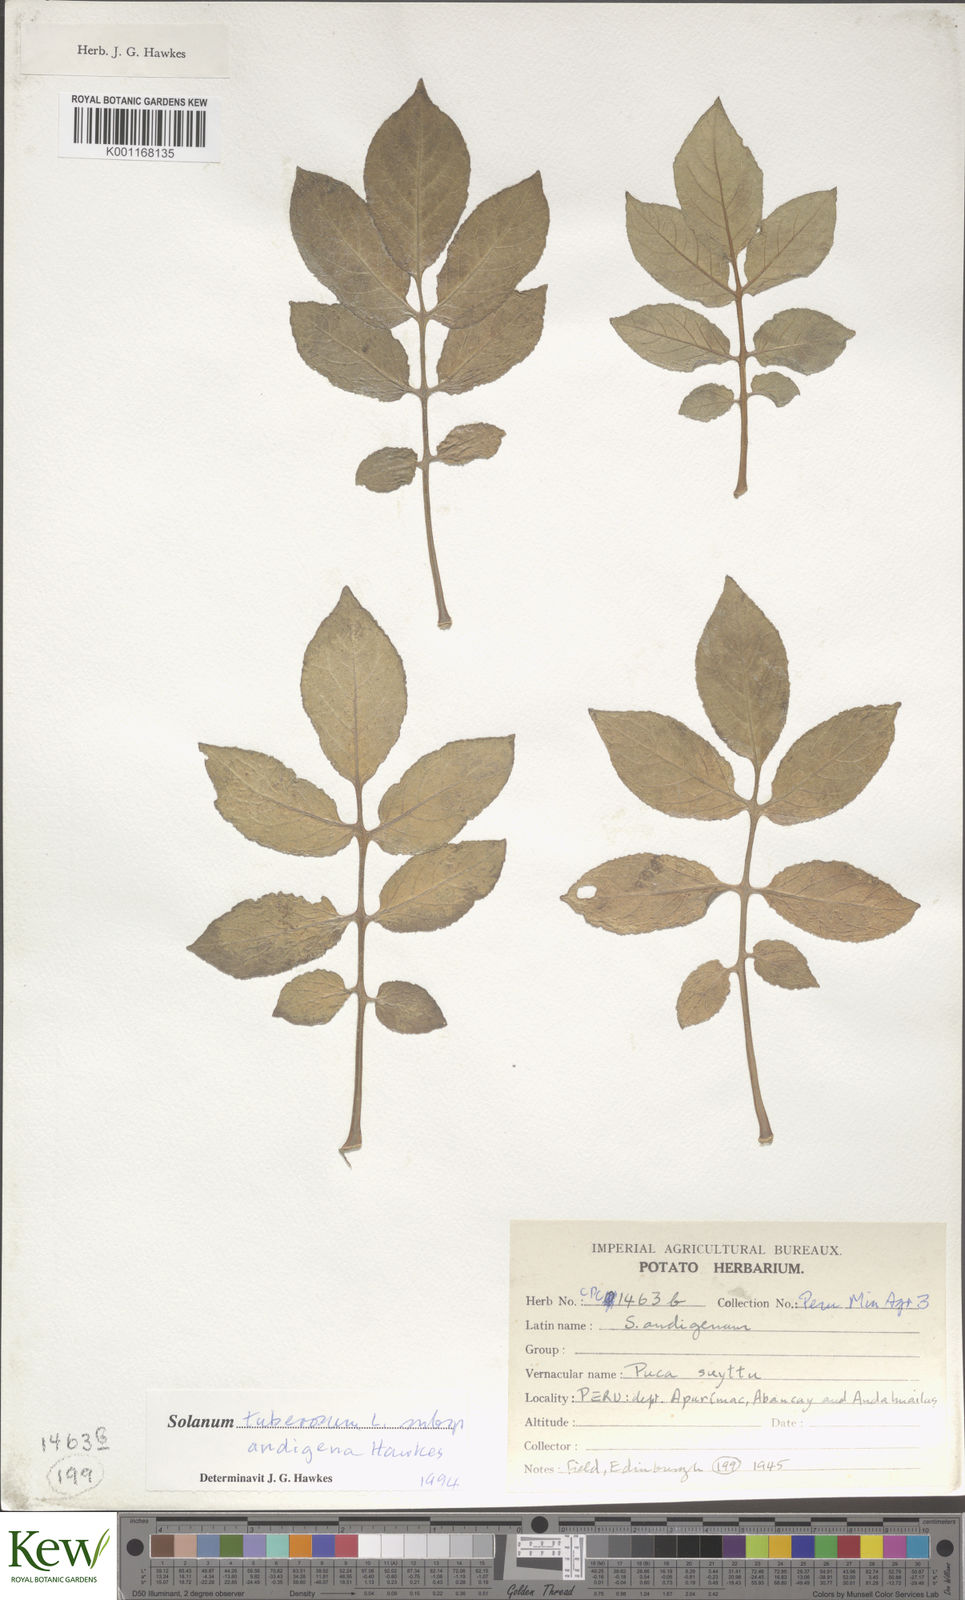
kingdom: Plantae
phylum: Tracheophyta
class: Magnoliopsida
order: Solanales
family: Solanaceae
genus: Solanum
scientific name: Solanum tuberosum
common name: Potato
